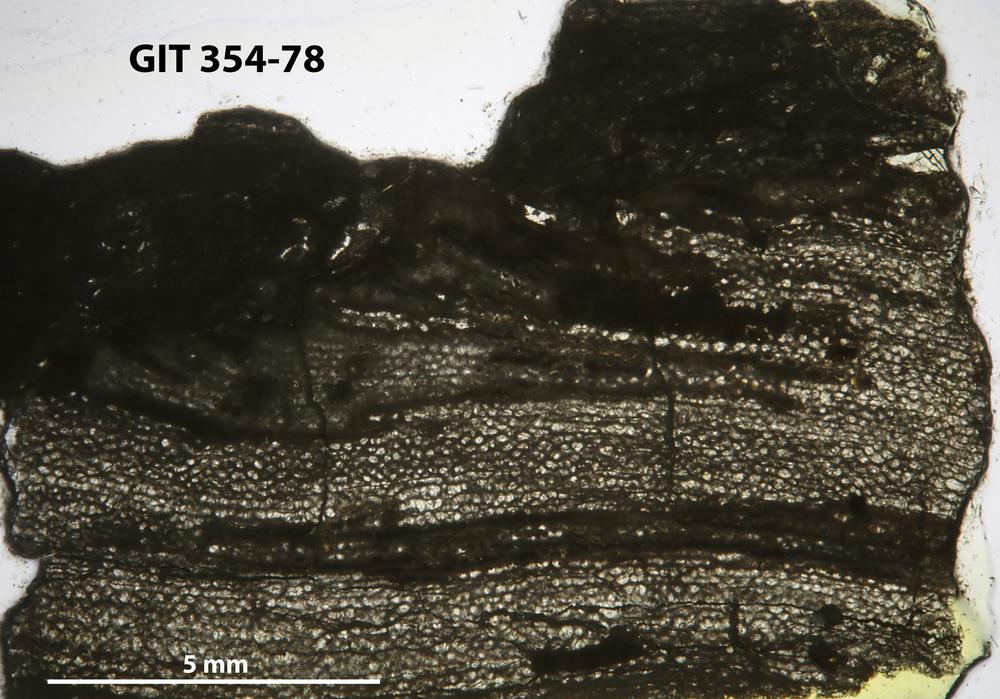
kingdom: Animalia
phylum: Porifera
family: Clathrodictyidae
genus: Clathrodictyon
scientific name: Clathrodictyon gregale
